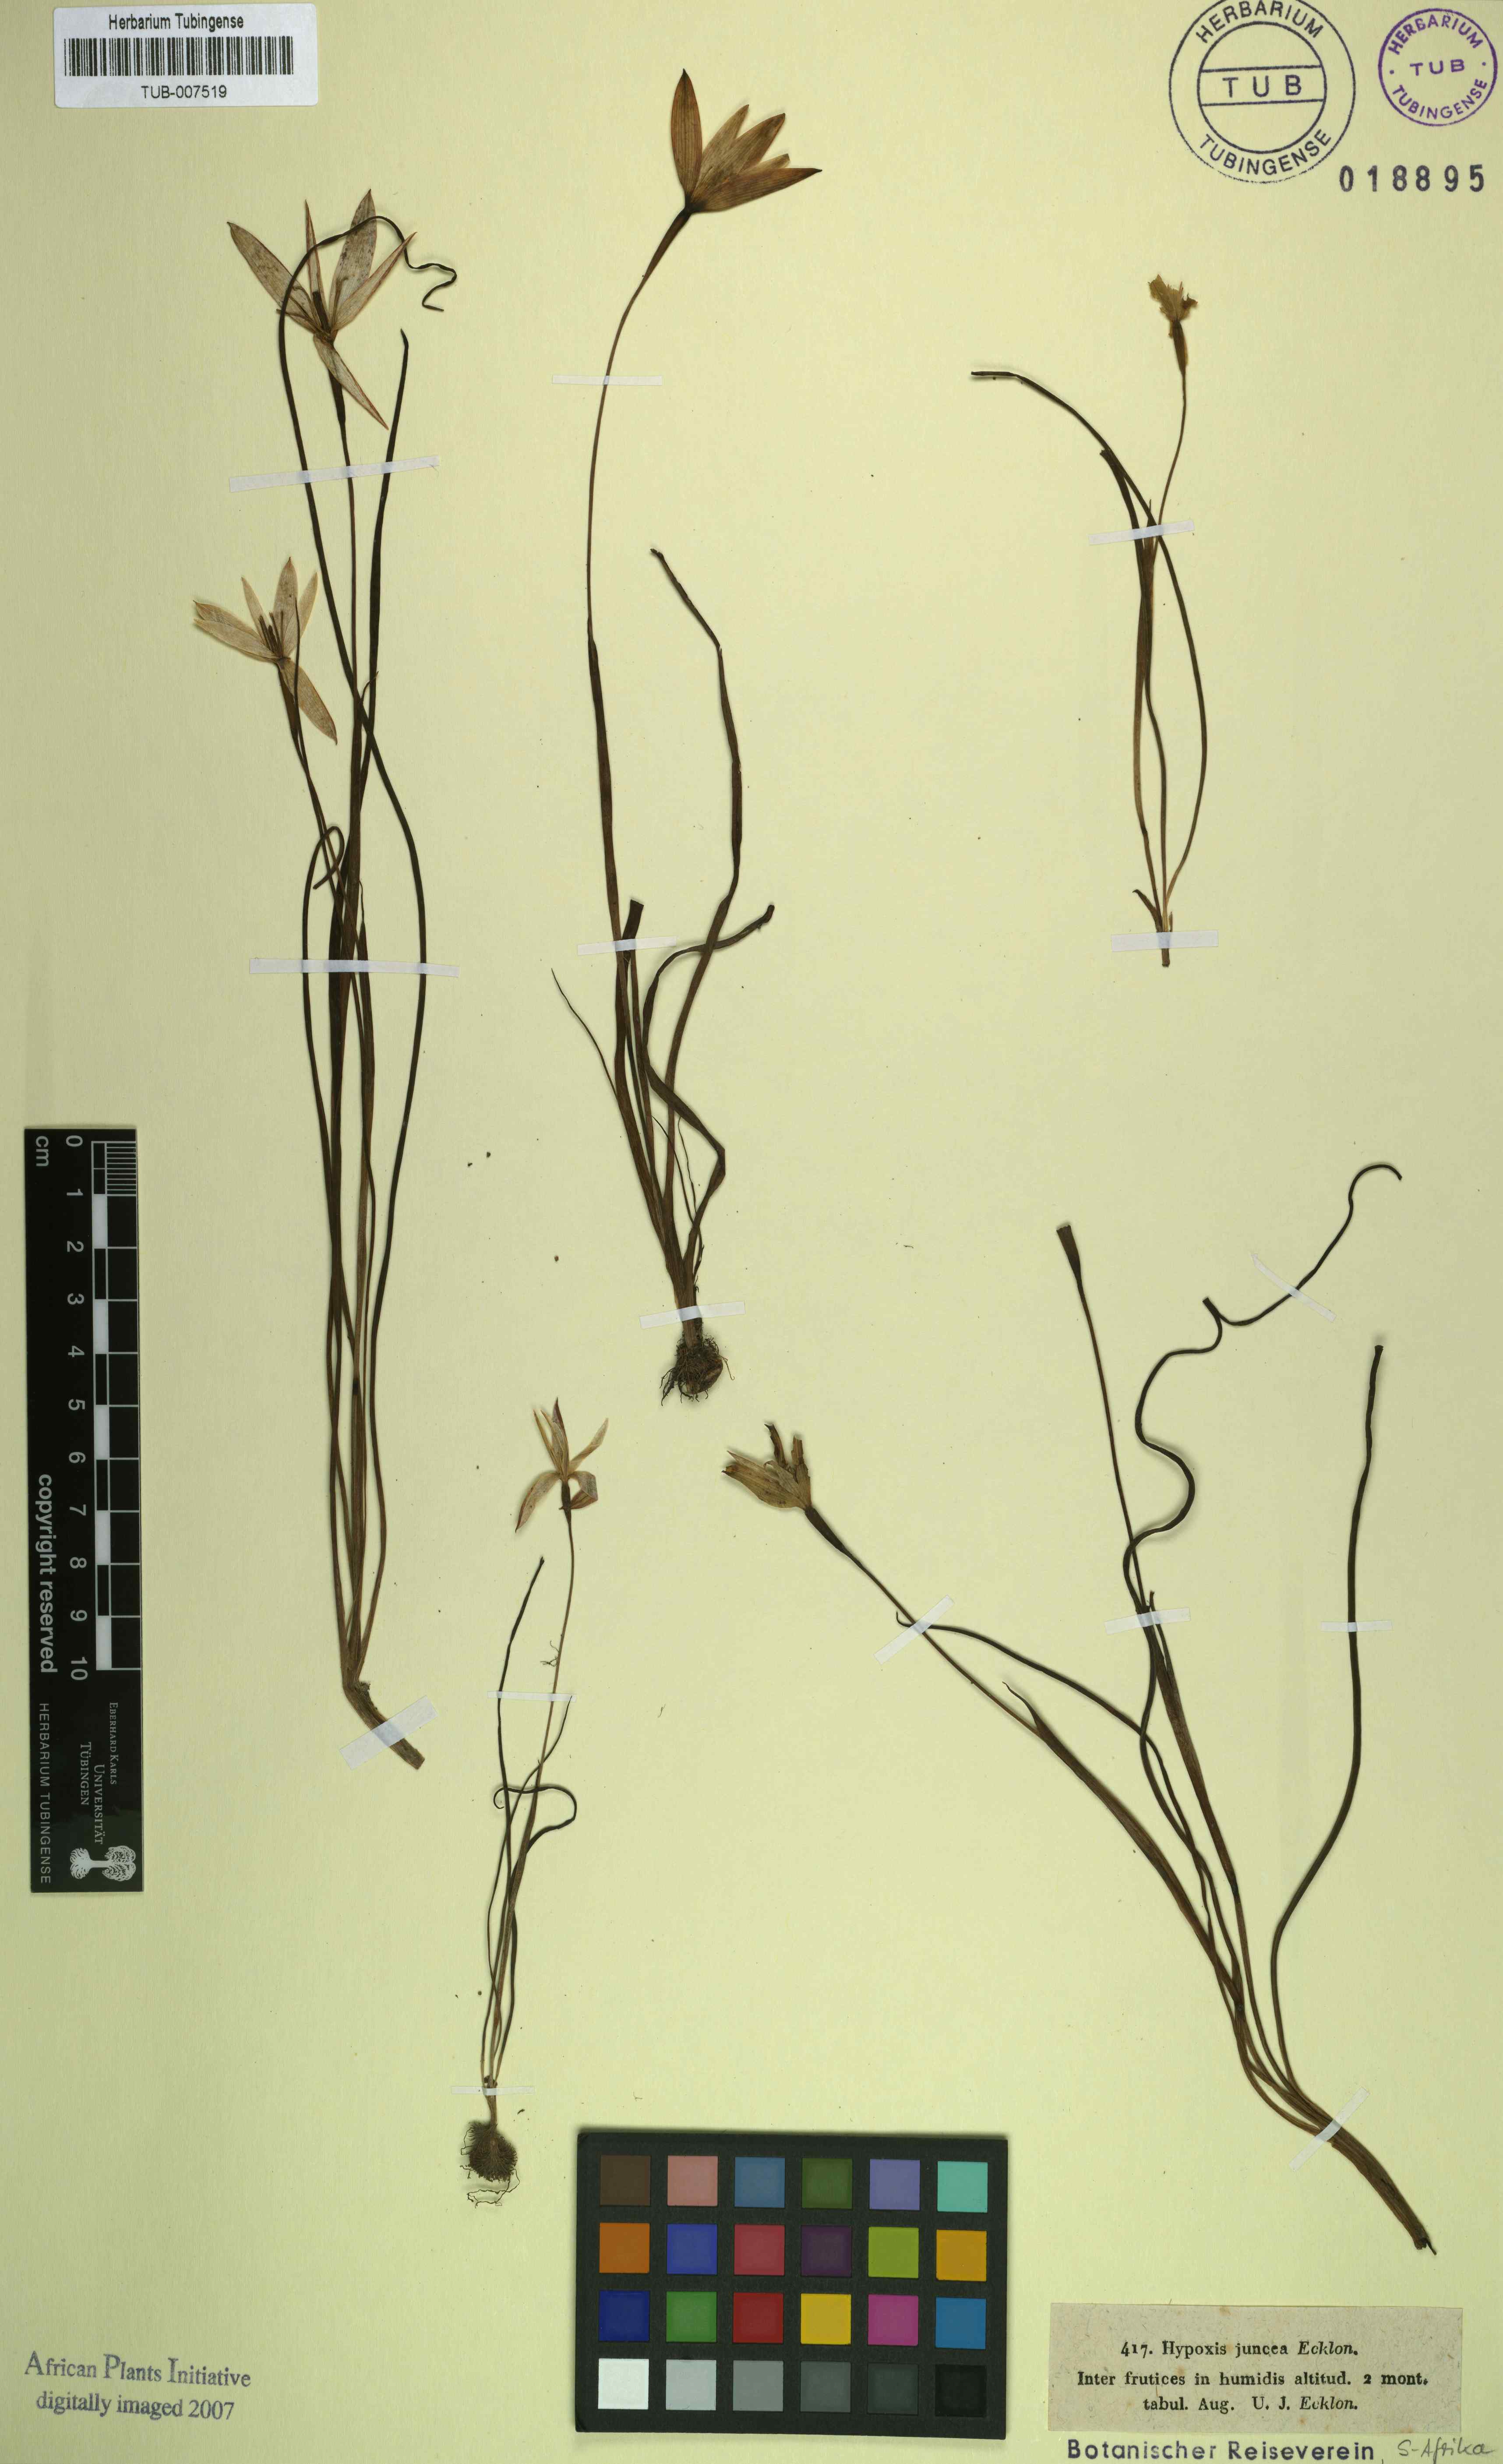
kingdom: Plantae
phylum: Tracheophyta
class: Liliopsida
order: Asparagales
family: Hypoxidaceae
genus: Pauridia
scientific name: Pauridia capensis
